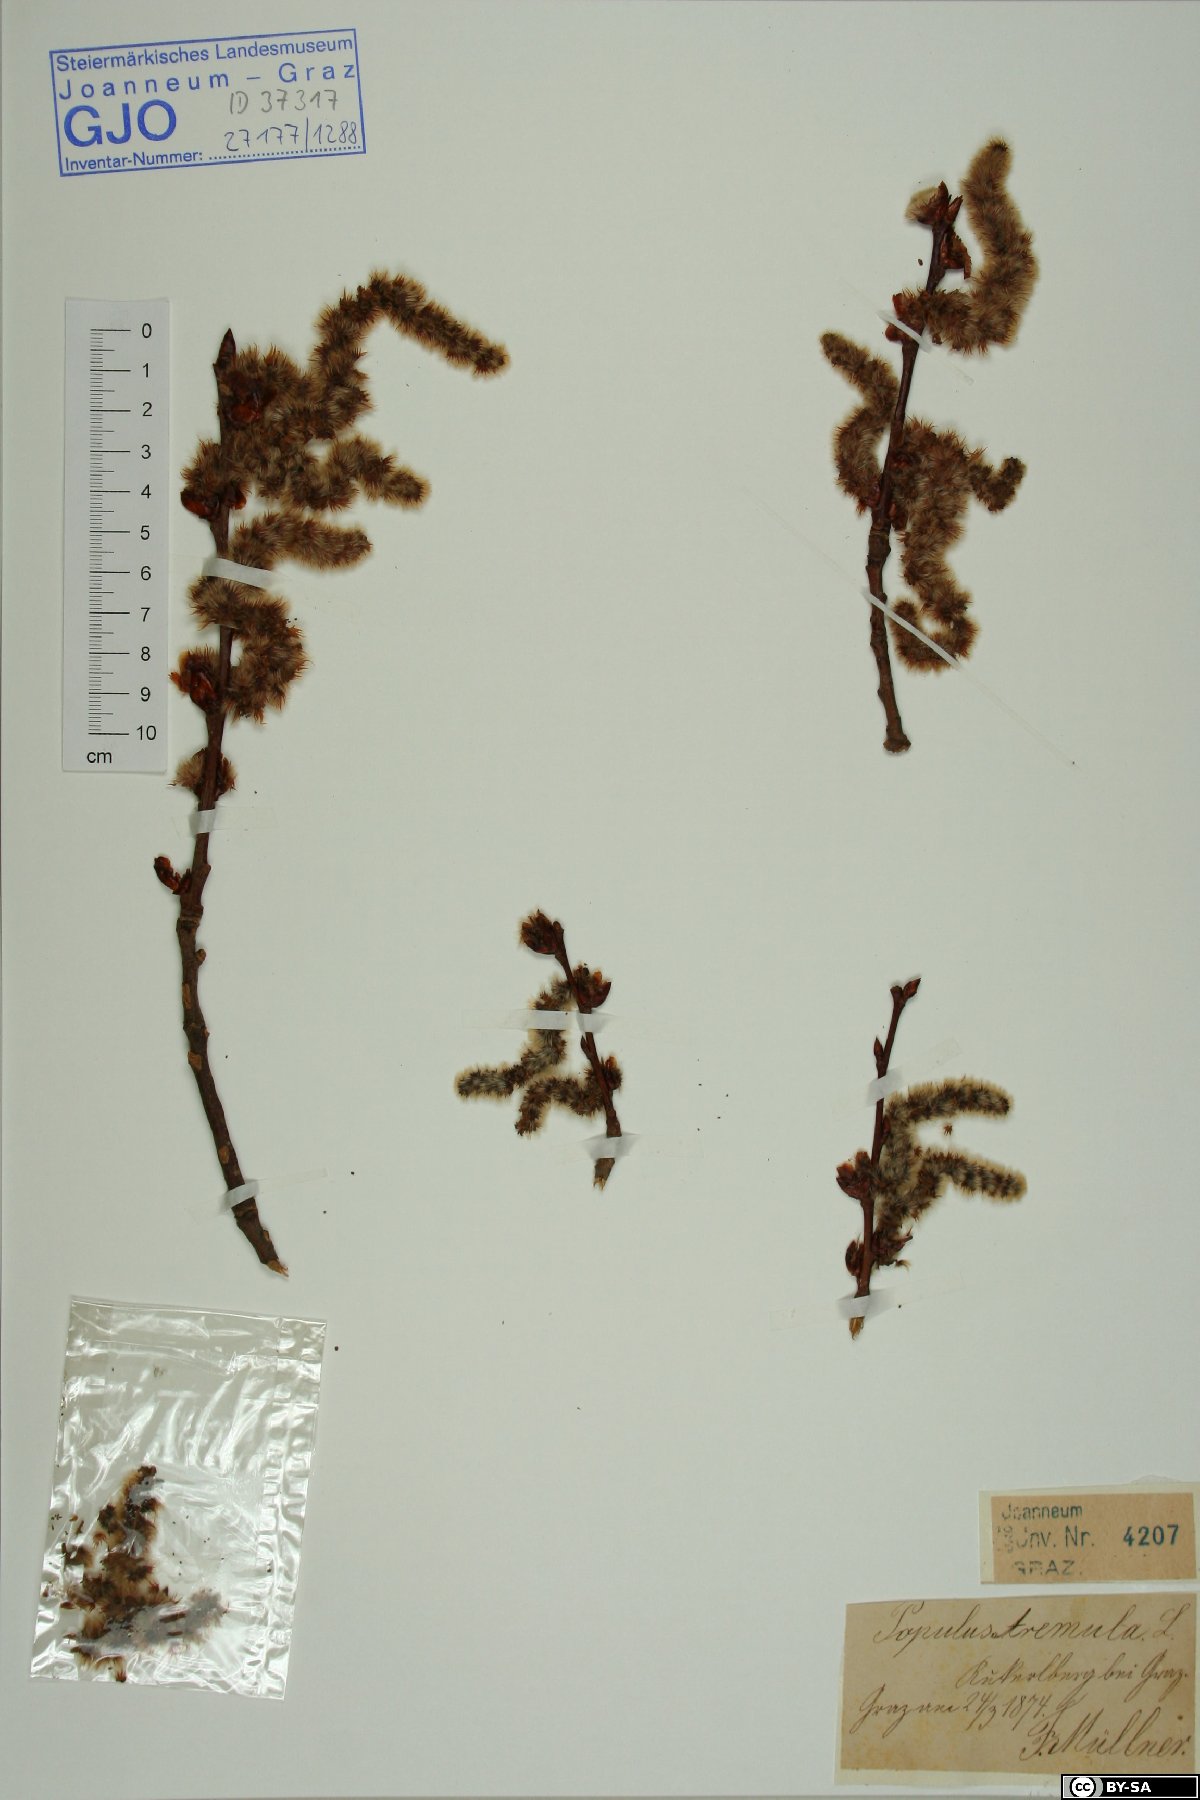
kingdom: Plantae
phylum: Tracheophyta
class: Magnoliopsida
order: Malpighiales
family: Salicaceae
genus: Populus
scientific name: Populus tremula
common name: European aspen
